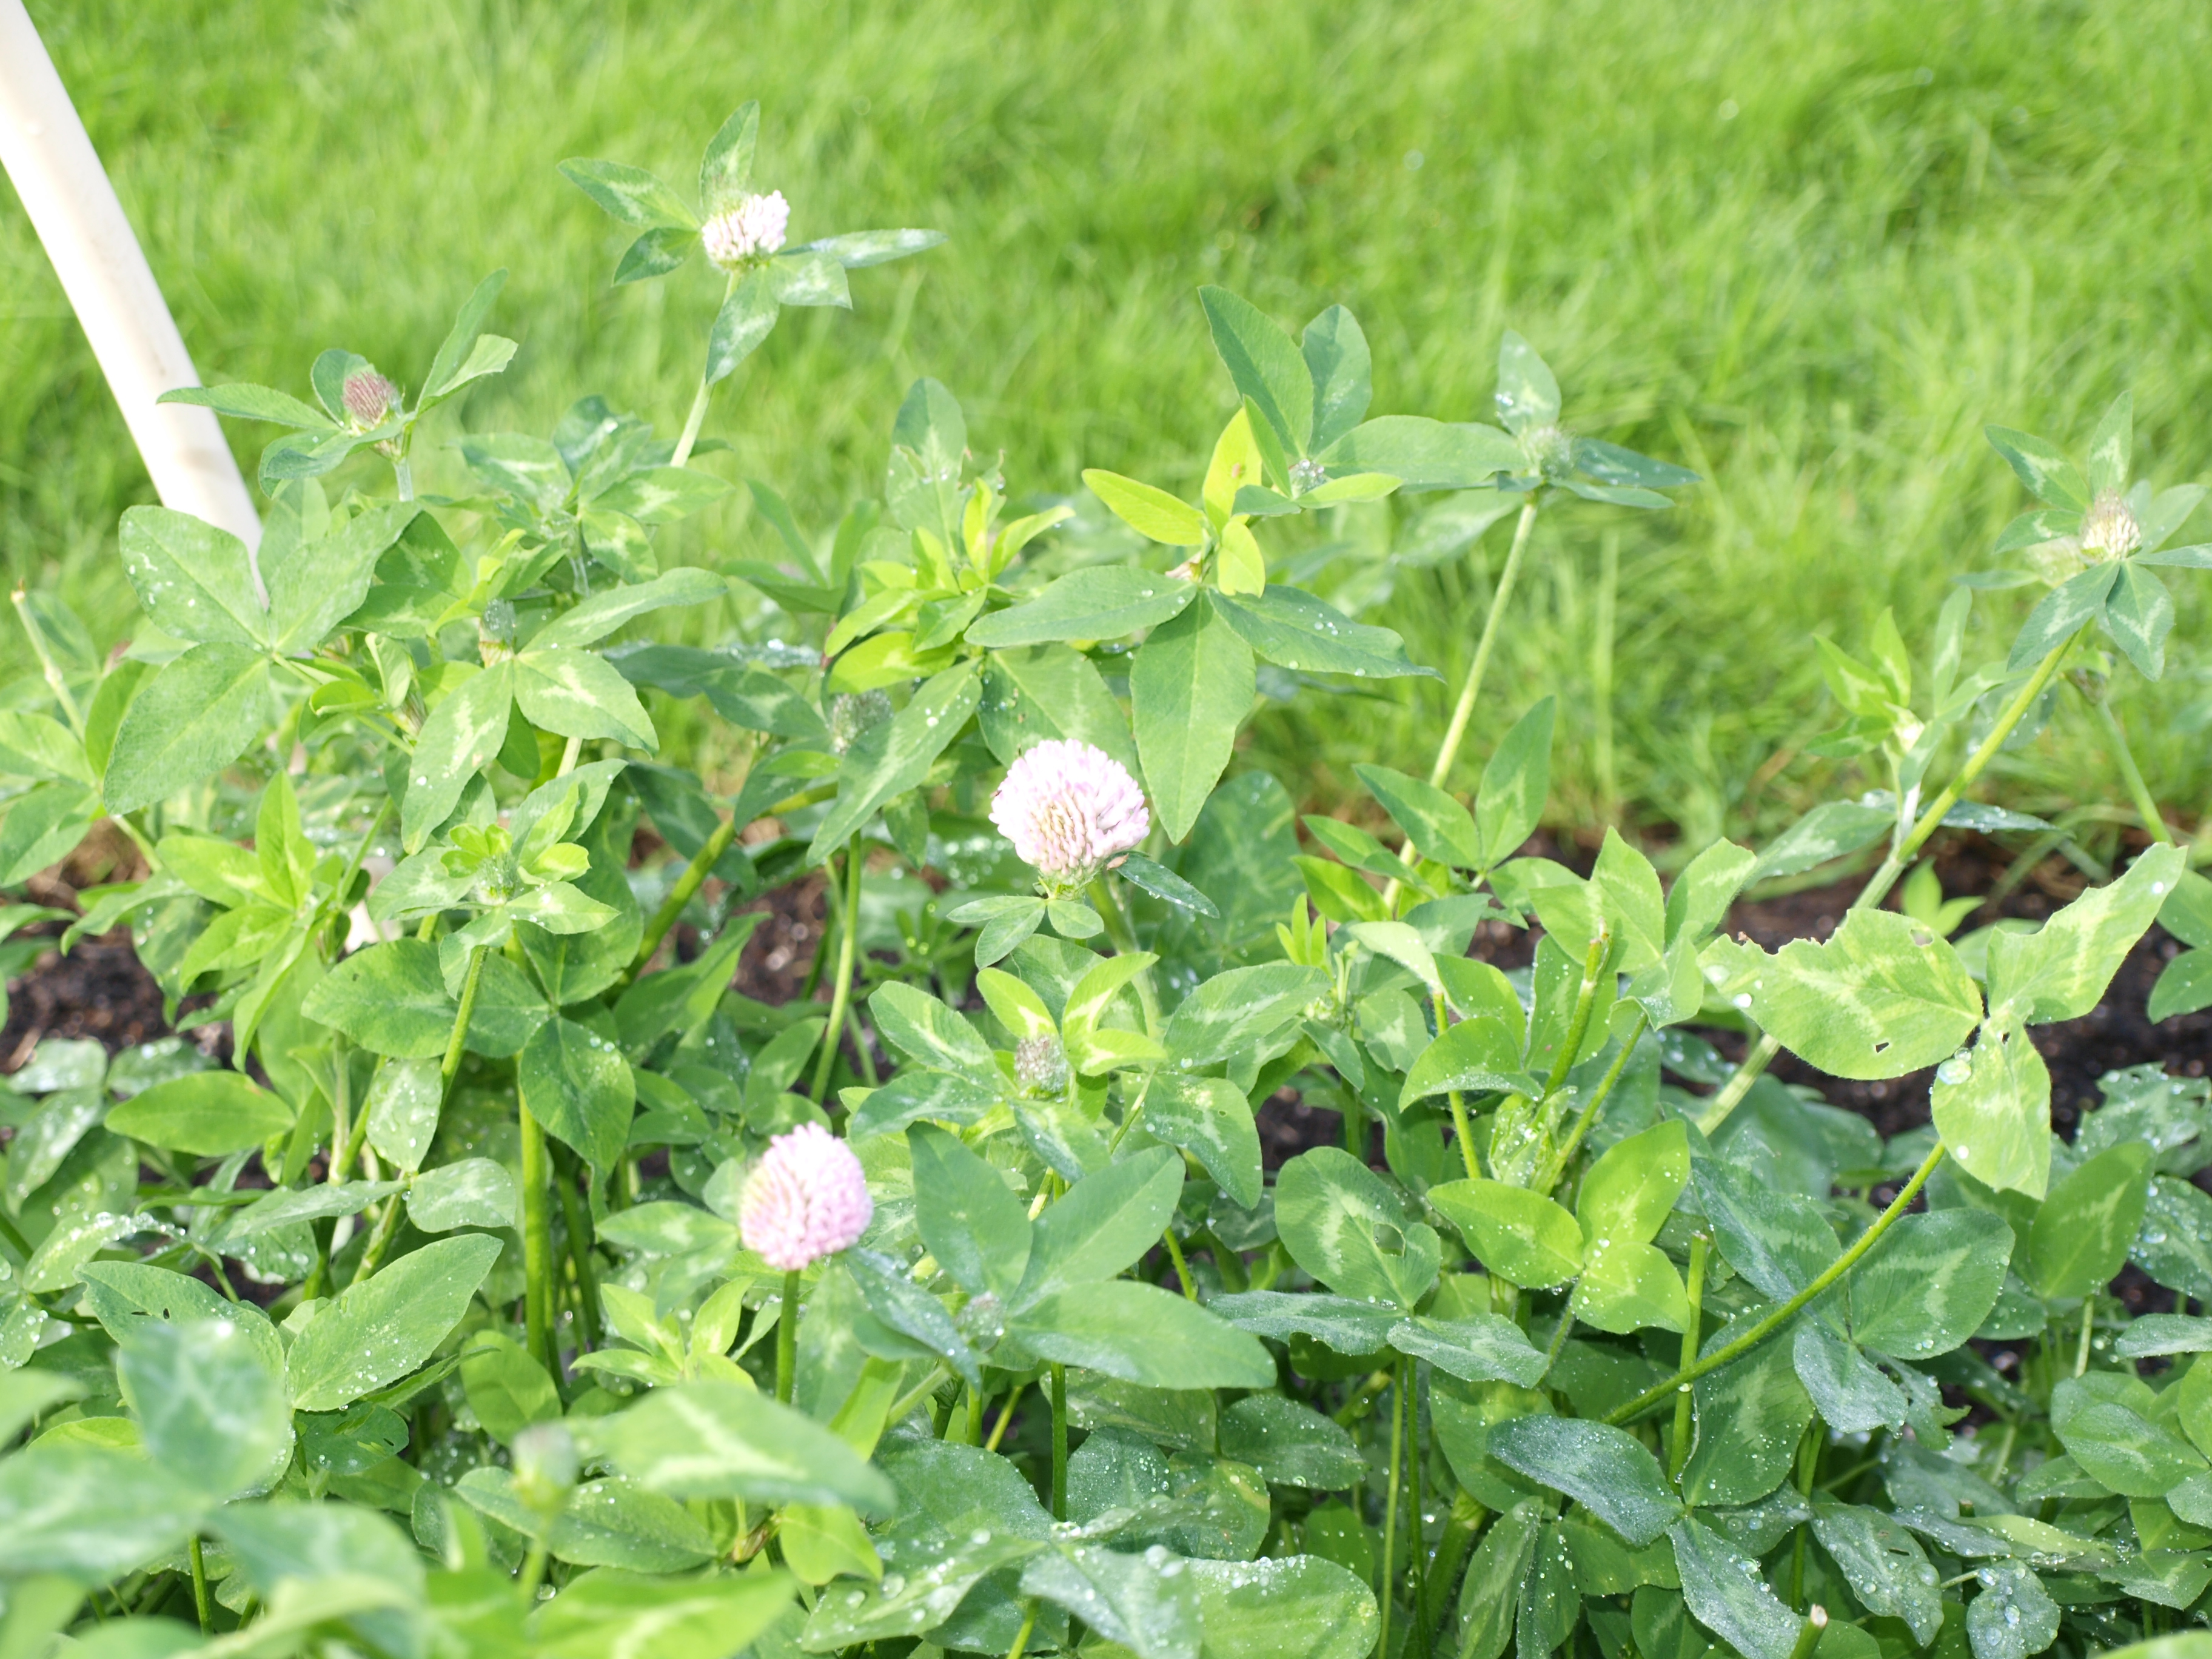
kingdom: Plantae
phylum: Tracheophyta
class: Magnoliopsida
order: Fabales
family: Fabaceae
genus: Trifolium
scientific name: Trifolium pratense
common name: Red clover
